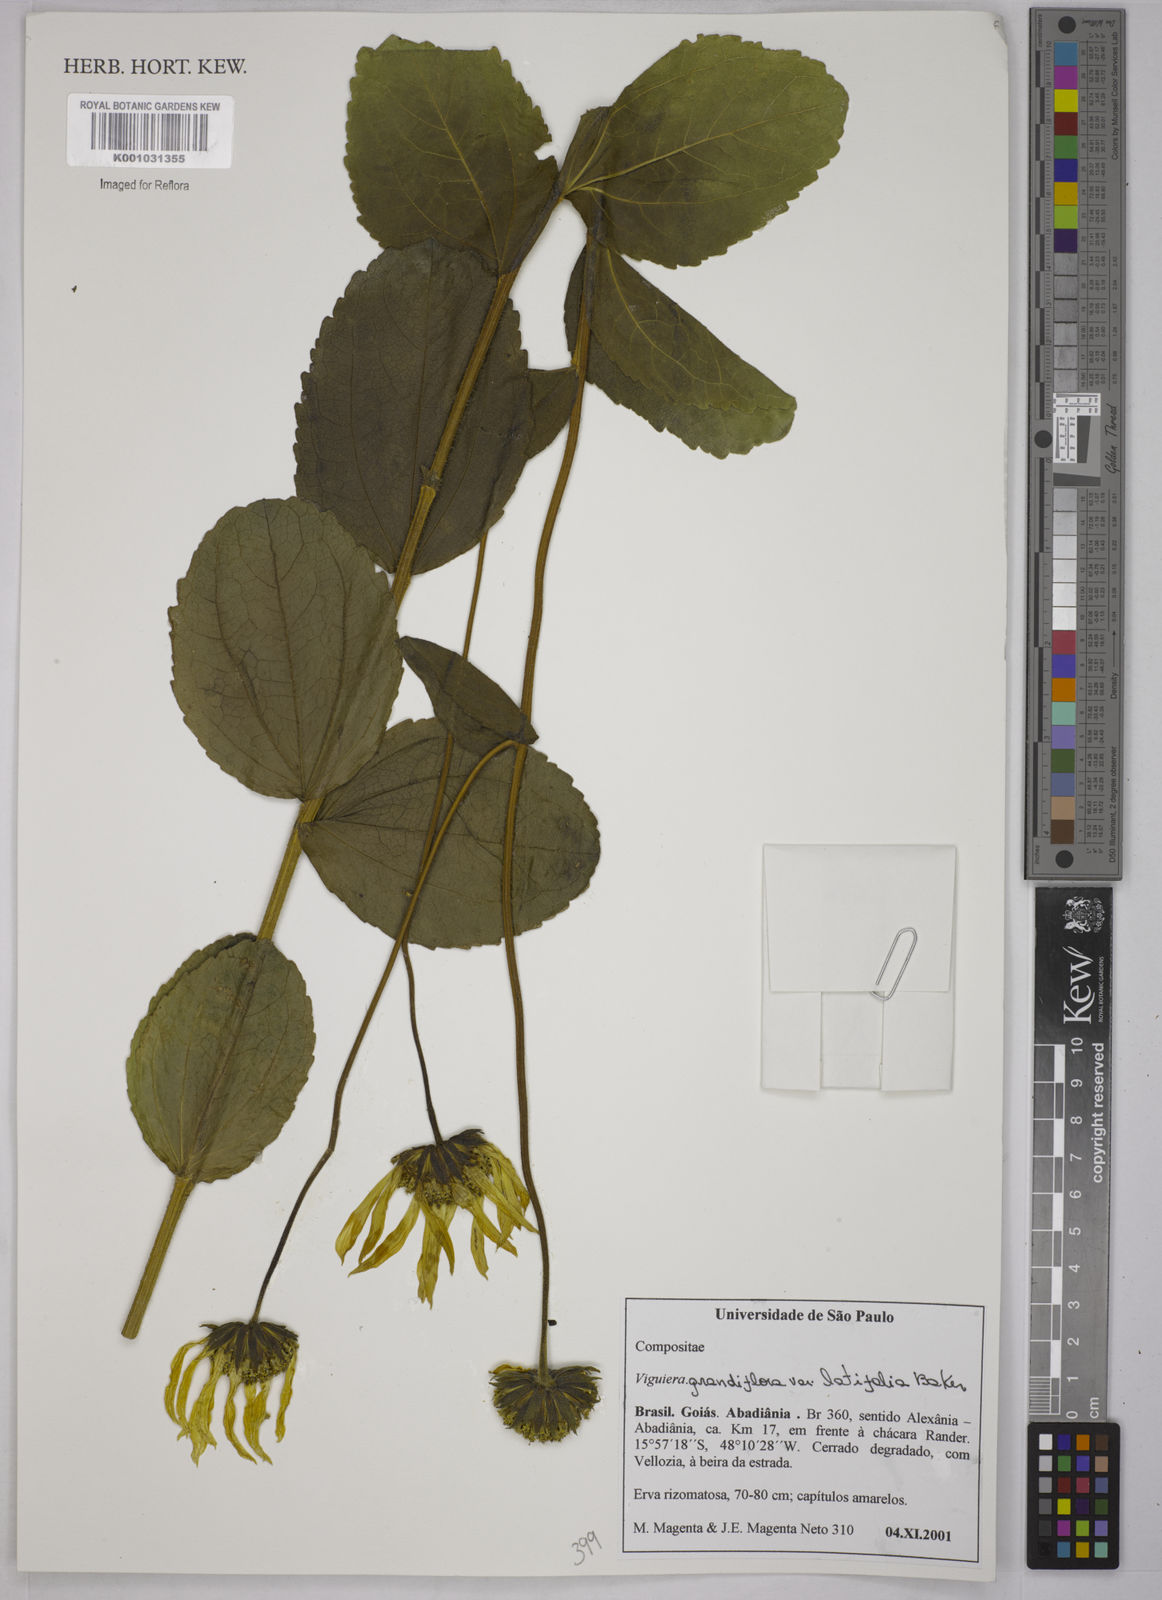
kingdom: Plantae
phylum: Tracheophyta
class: Magnoliopsida
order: Asterales
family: Asteraceae
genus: Aldama
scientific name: Aldama grandiflora
